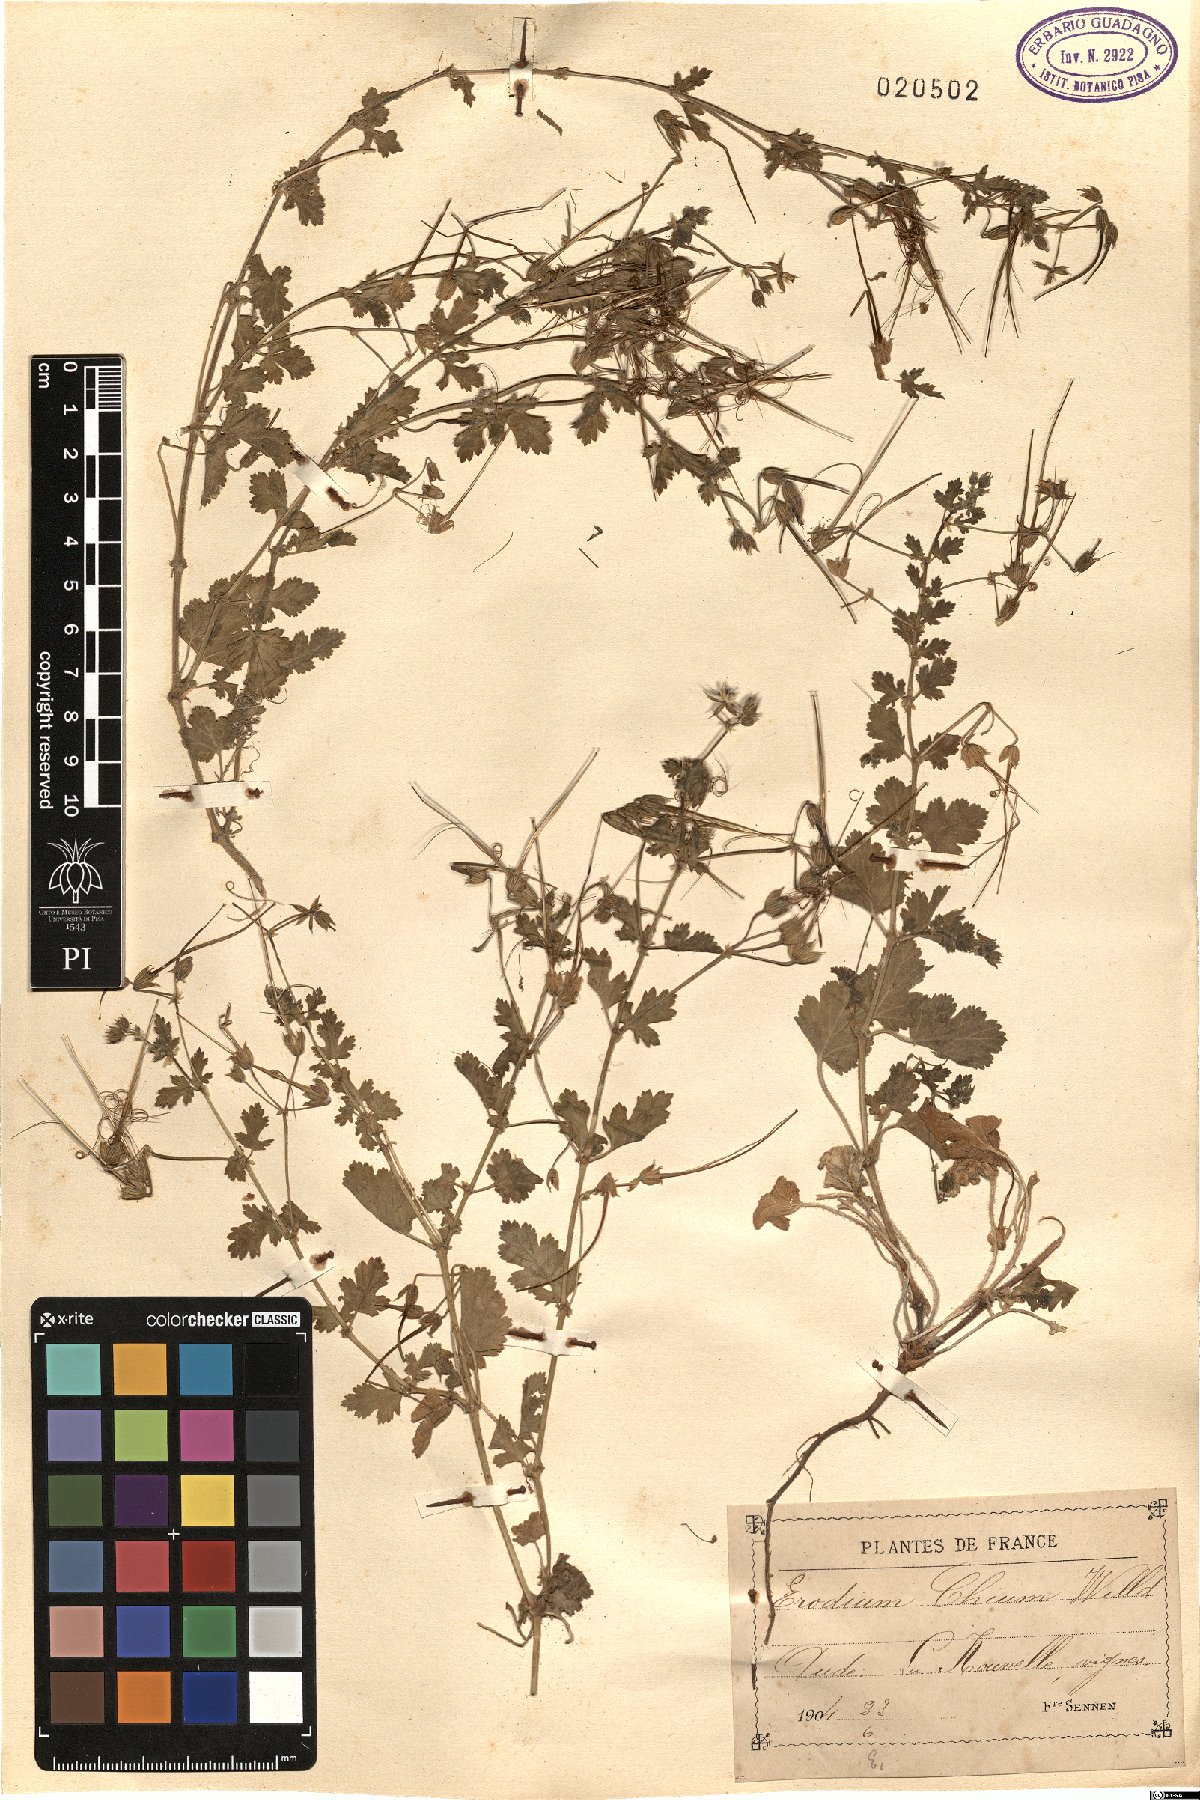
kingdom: Plantae
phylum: Tracheophyta
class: Magnoliopsida
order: Geraniales
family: Geraniaceae
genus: Erodium
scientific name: Erodium chium
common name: Three-lobed stork's-bill
